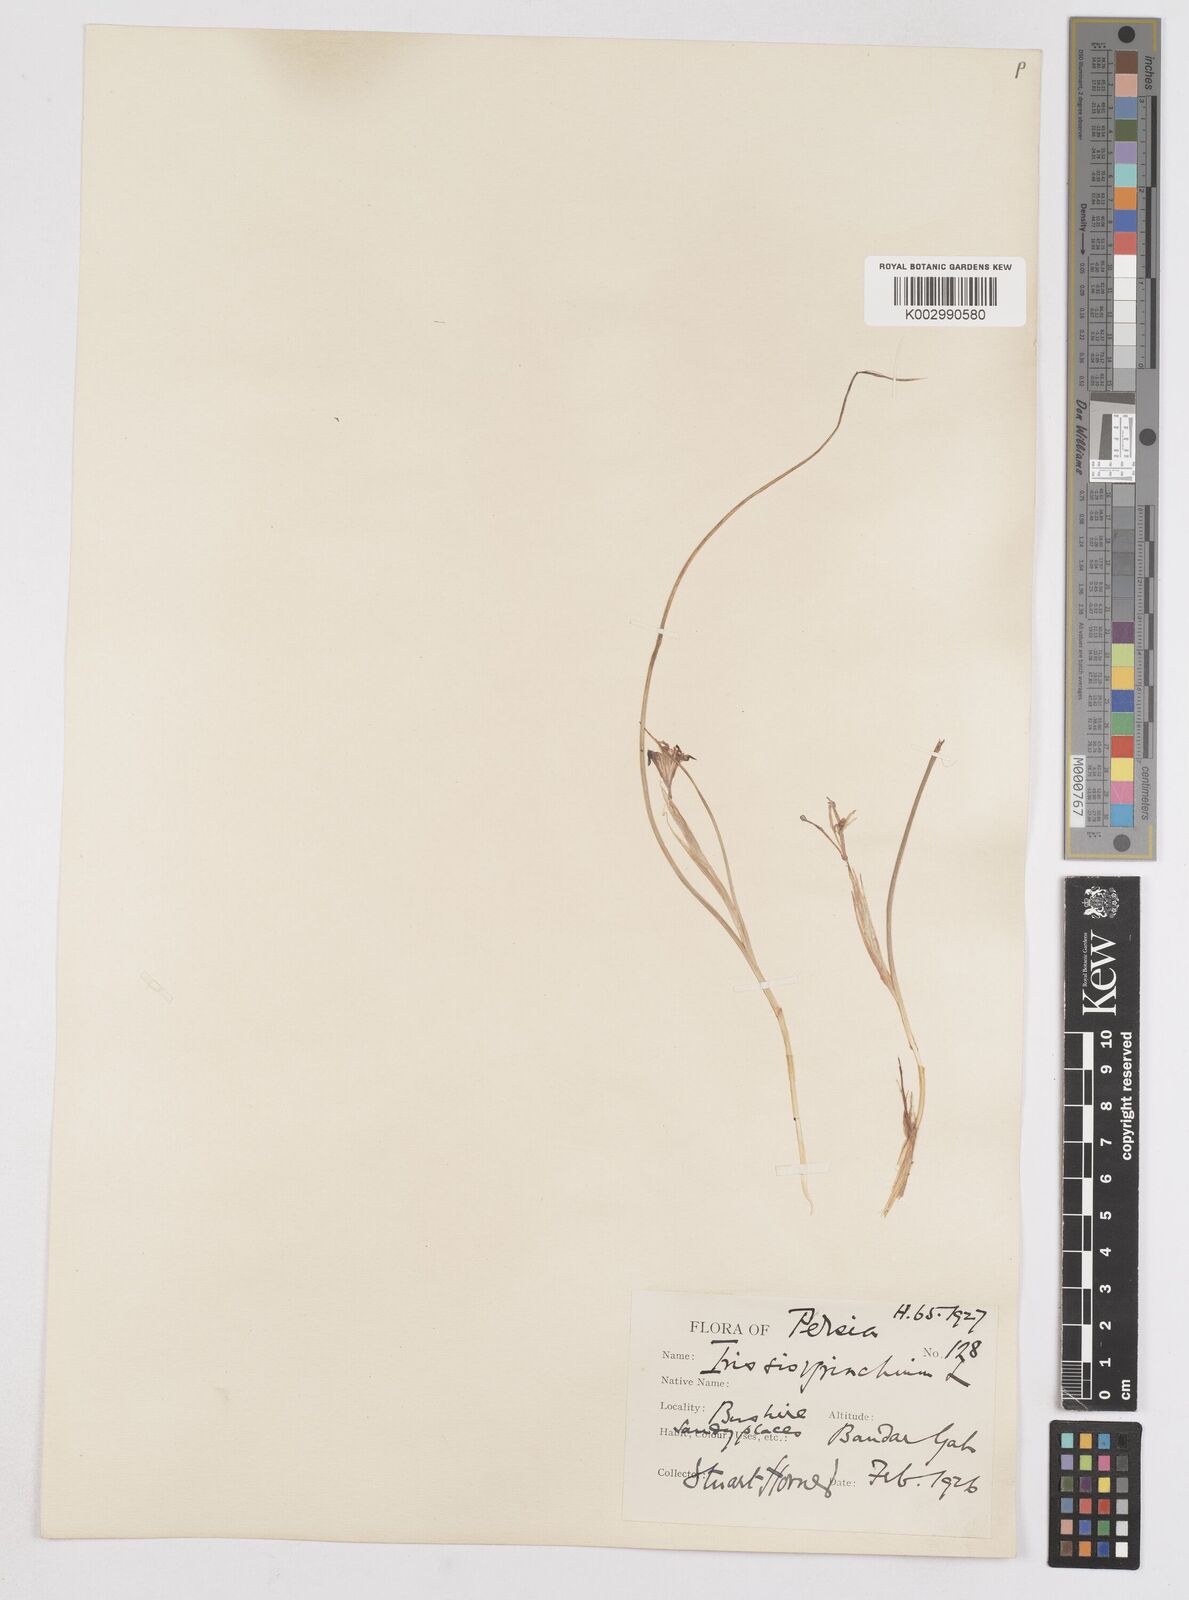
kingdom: Plantae
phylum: Tracheophyta
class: Liliopsida
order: Asparagales
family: Iridaceae
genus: Moraea
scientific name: Moraea sisyrinchium
